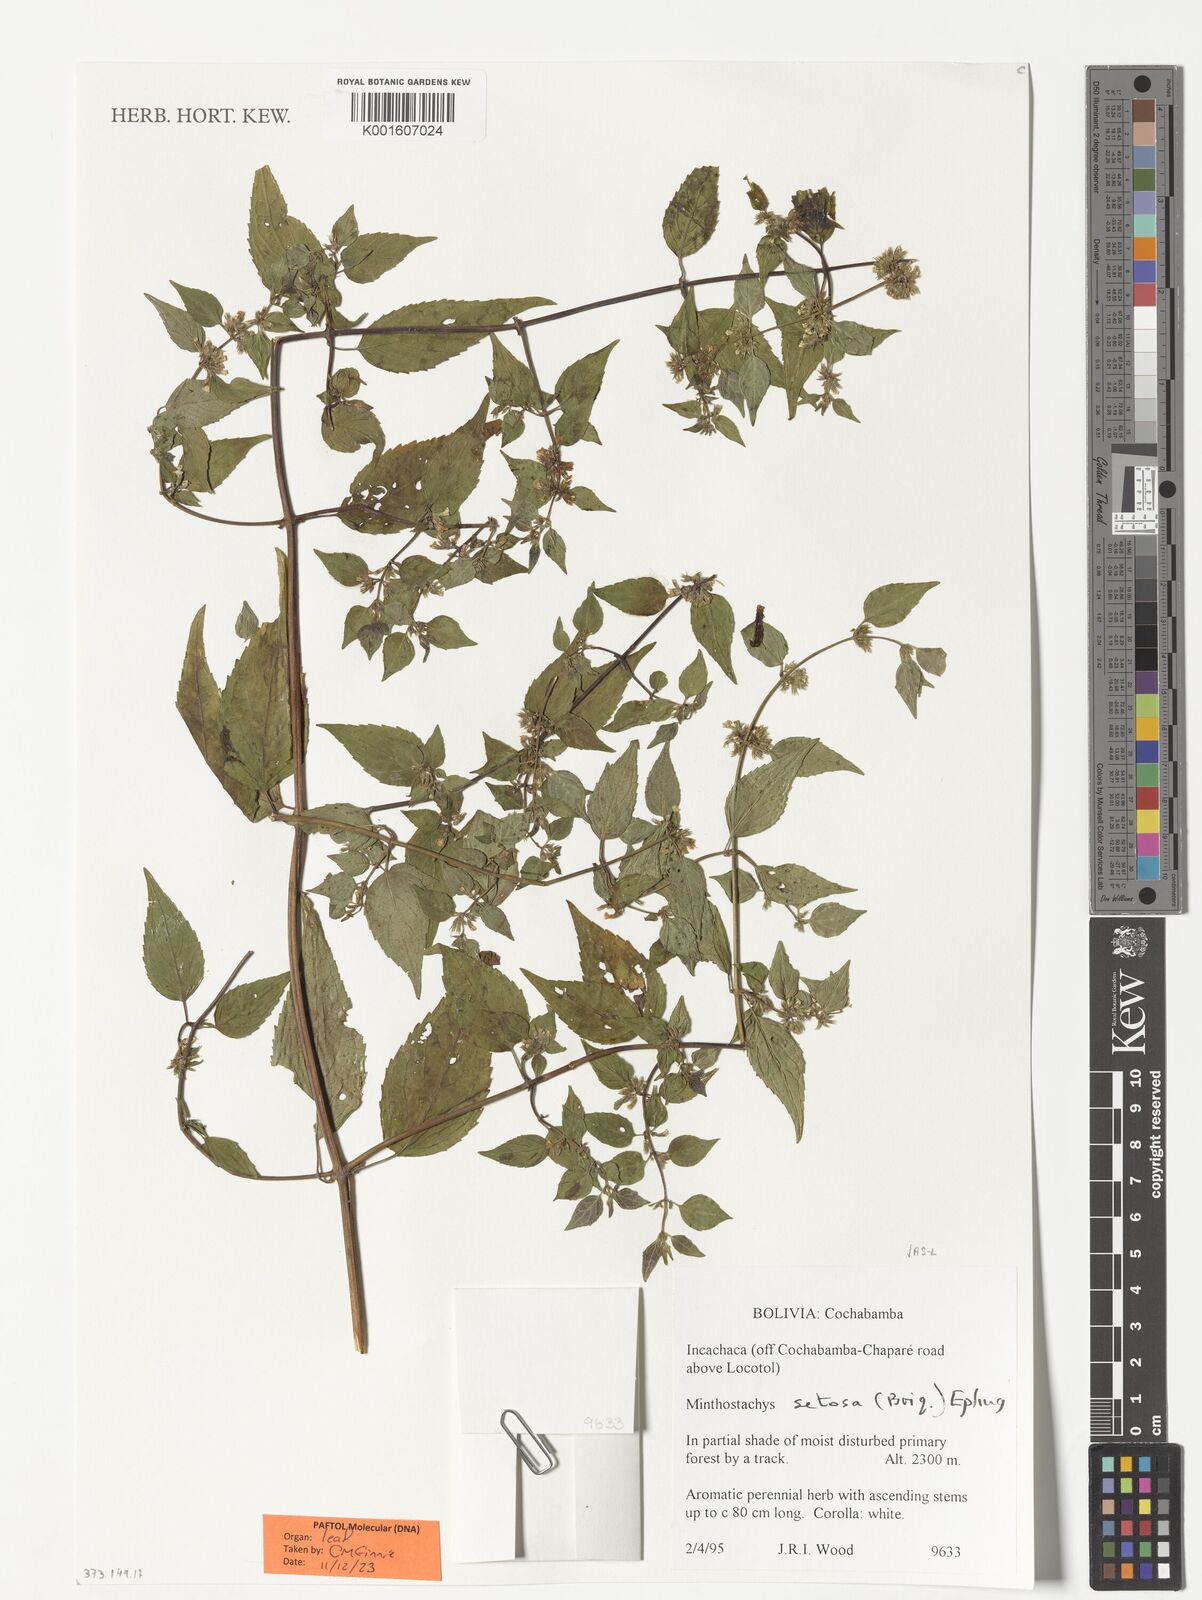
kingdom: Plantae
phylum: Tracheophyta
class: Magnoliopsida
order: Lamiales
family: Lamiaceae
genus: Minthostachys
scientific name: Minthostachys setosa
